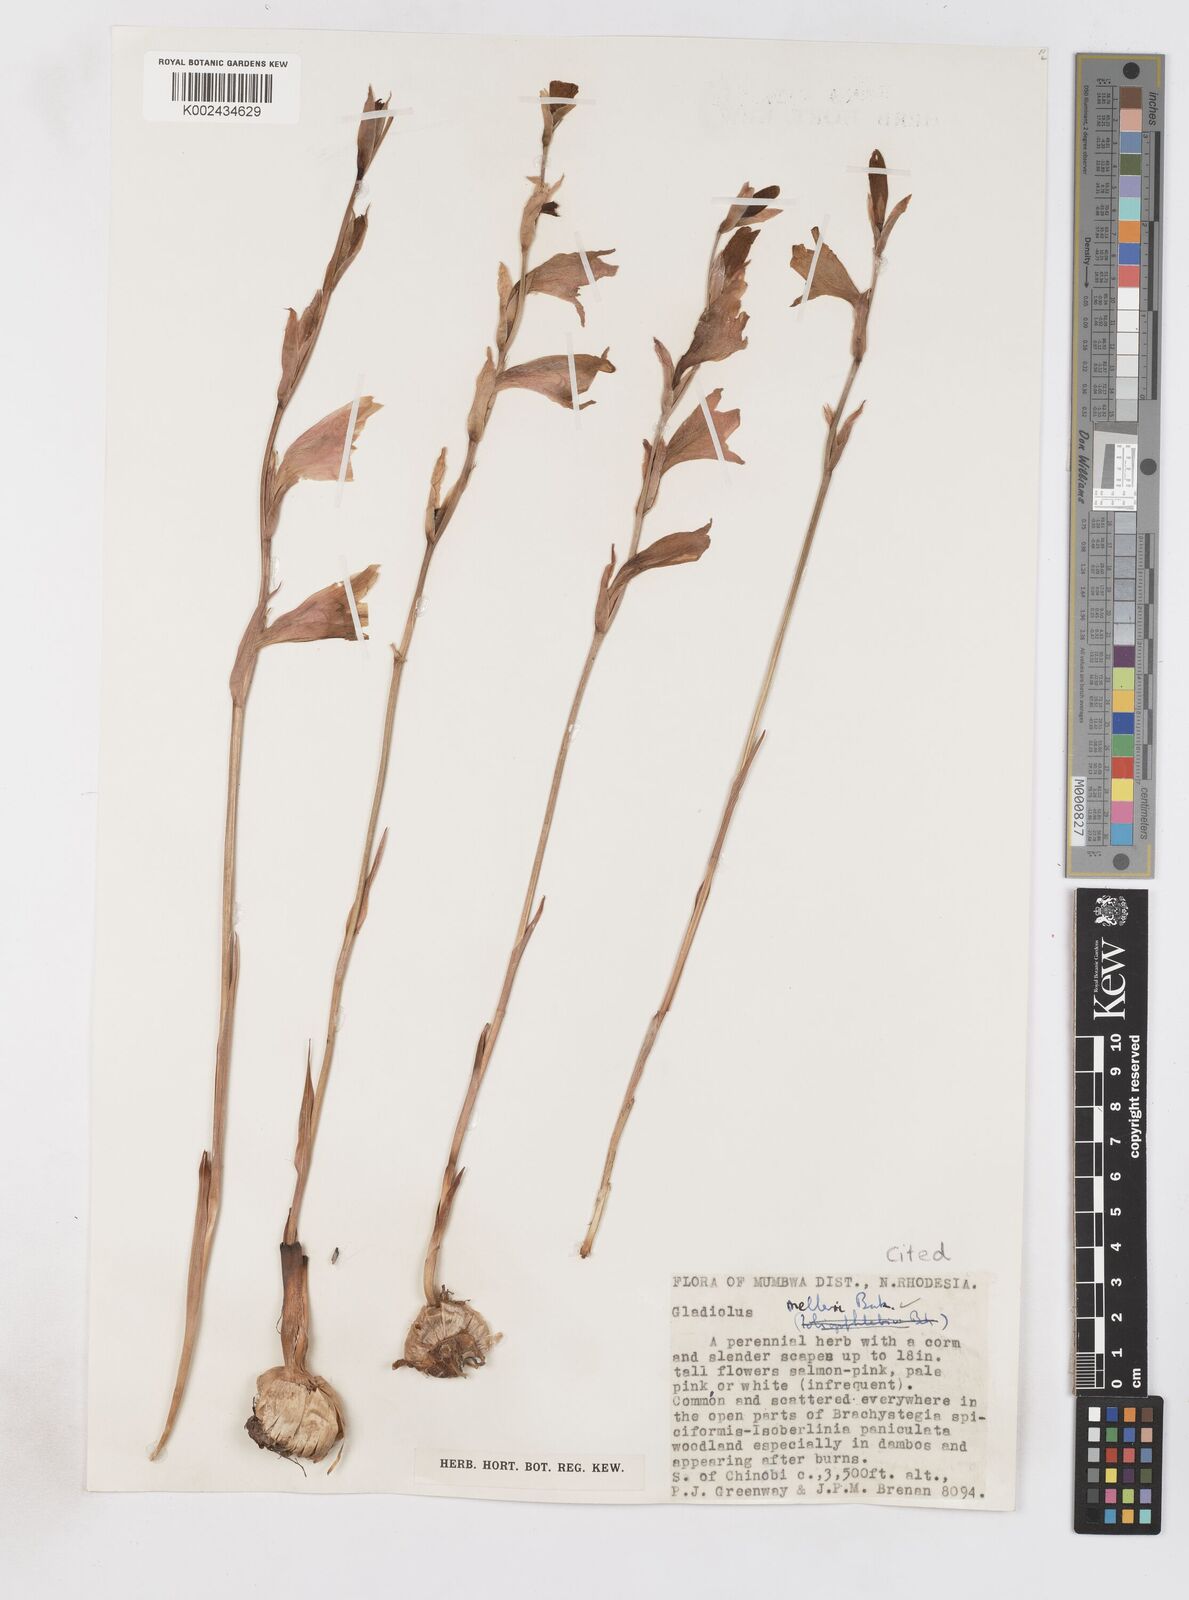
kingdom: Plantae
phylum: Tracheophyta
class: Liliopsida
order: Asparagales
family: Iridaceae
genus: Gladiolus
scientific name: Gladiolus melleri
